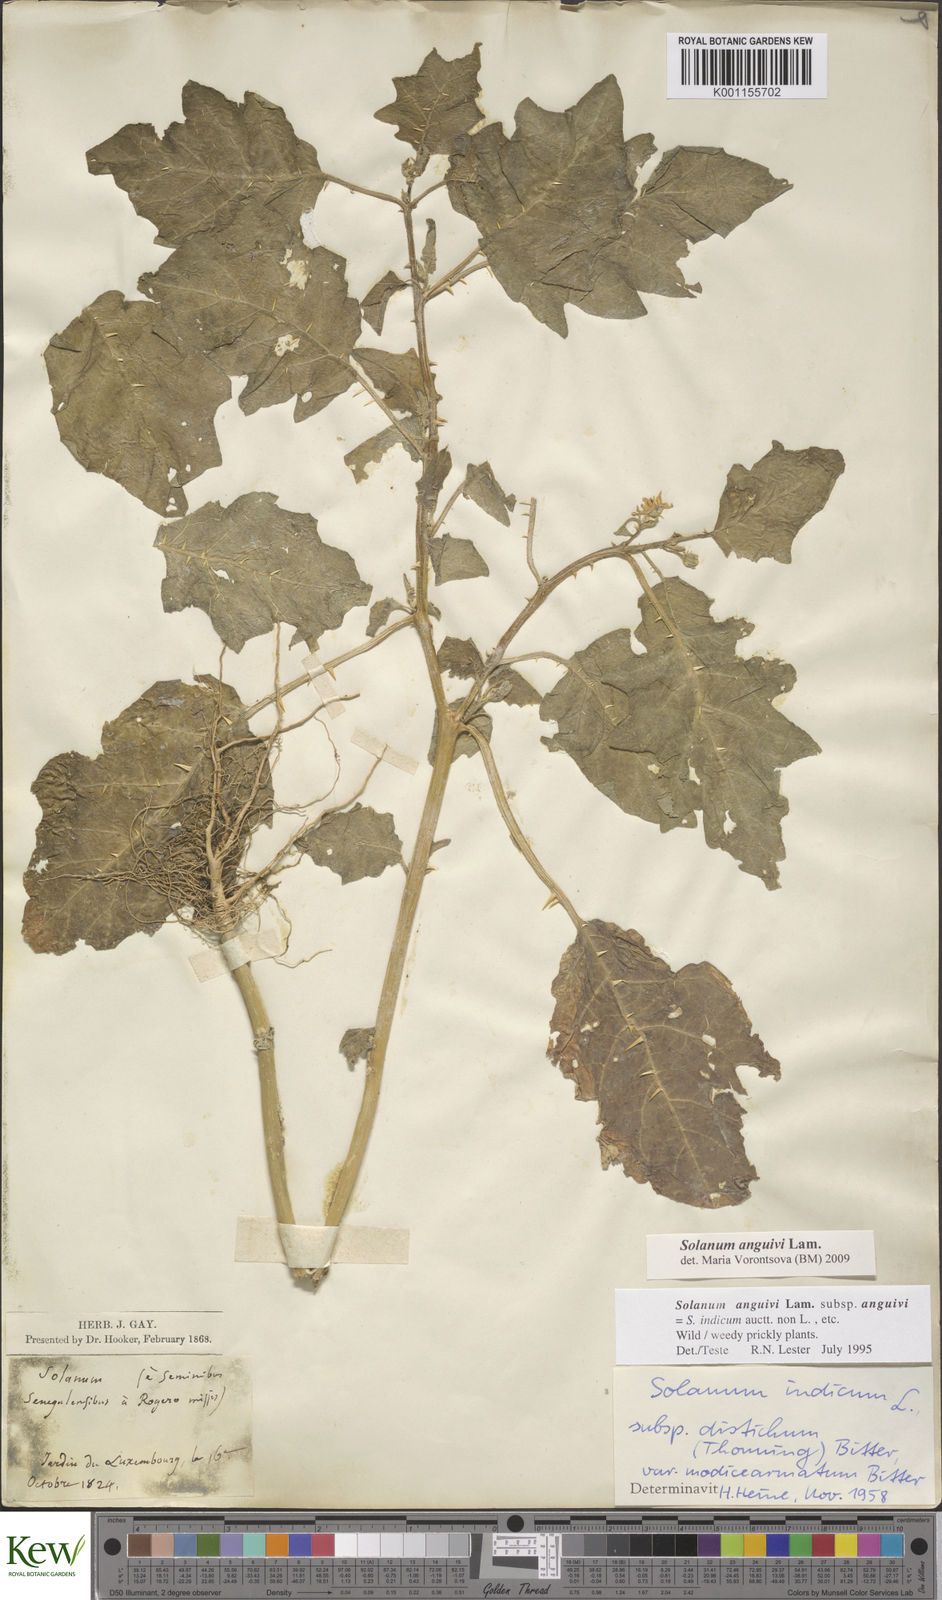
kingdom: Plantae
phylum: Tracheophyta
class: Magnoliopsida
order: Solanales
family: Solanaceae
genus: Solanum
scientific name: Solanum anguivi
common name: Forest bitterberry
